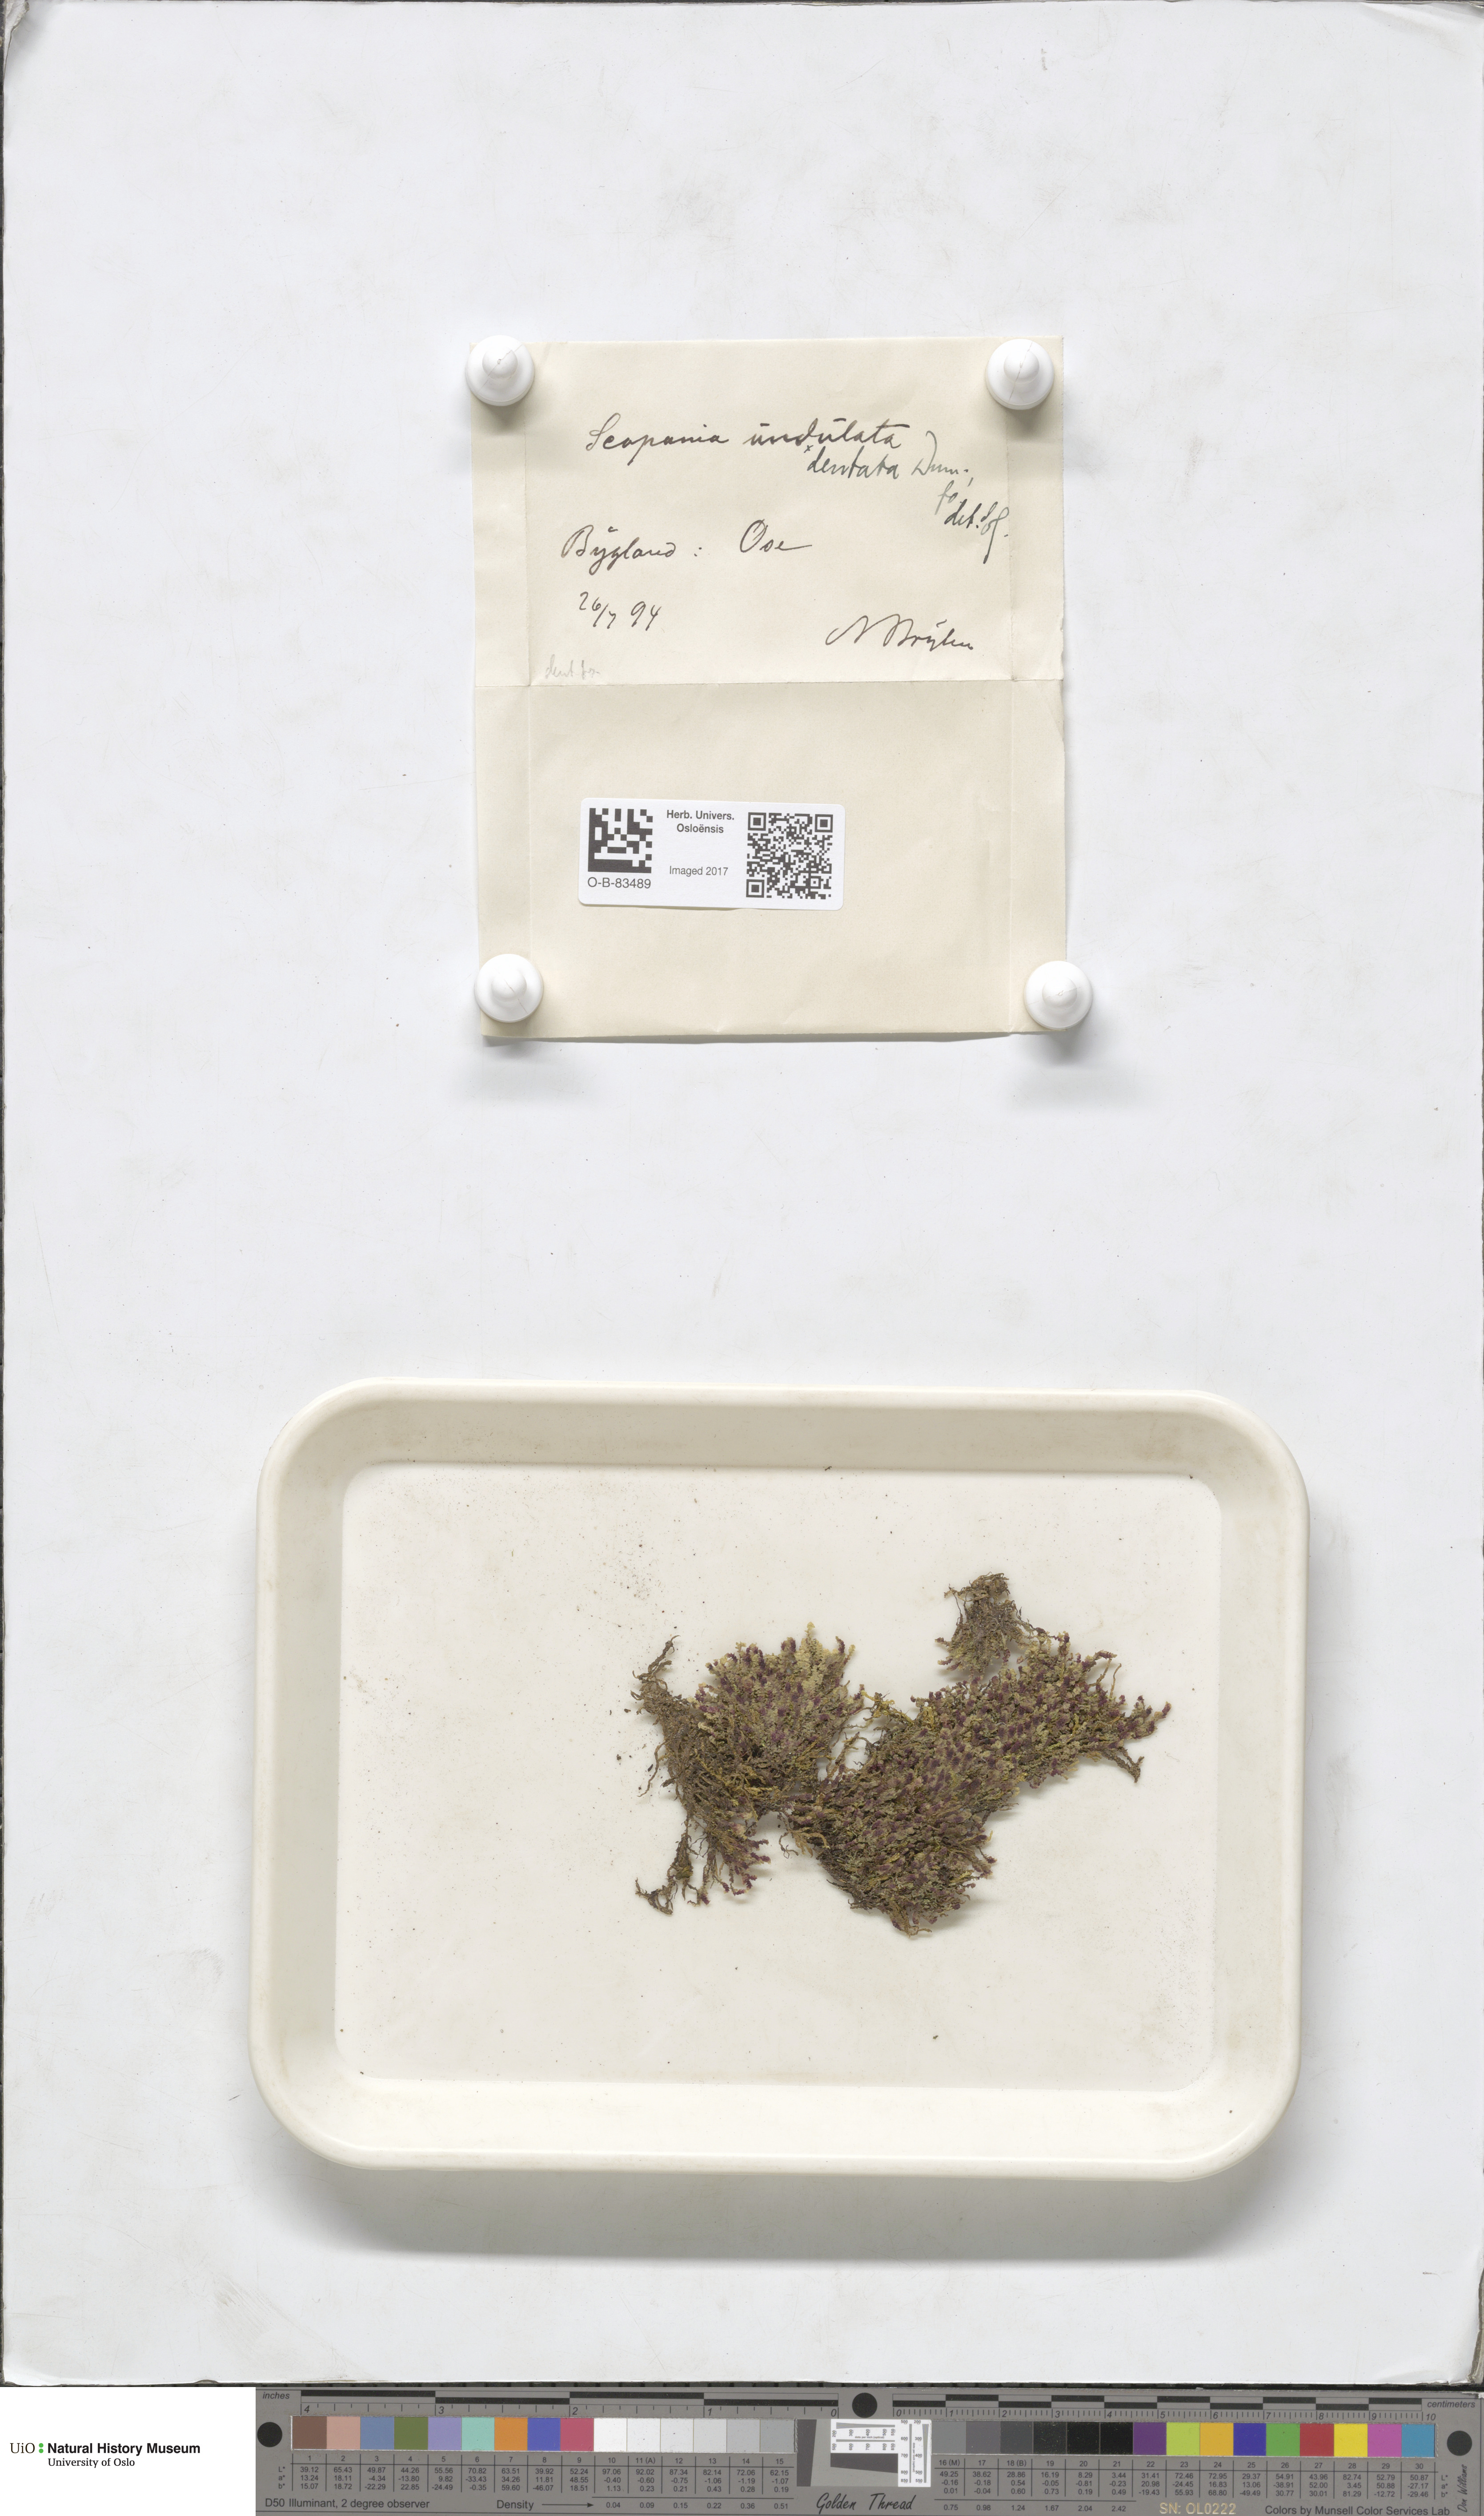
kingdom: Plantae
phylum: Marchantiophyta
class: Jungermanniopsida
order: Jungermanniales
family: Scapaniaceae
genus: Scapania
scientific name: Scapania undulata
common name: Water earwort
